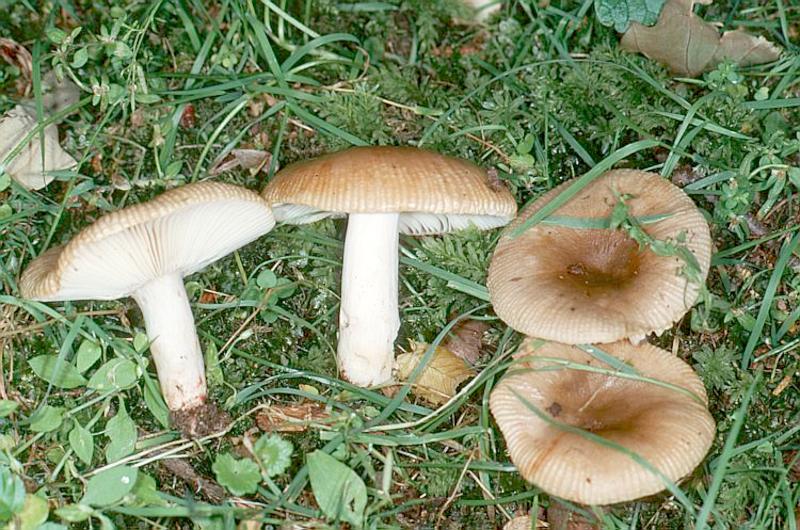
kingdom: Fungi
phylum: Basidiomycota
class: Agaricomycetes
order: Russulales
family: Russulaceae
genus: Russula
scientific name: Russula pectinatoides
